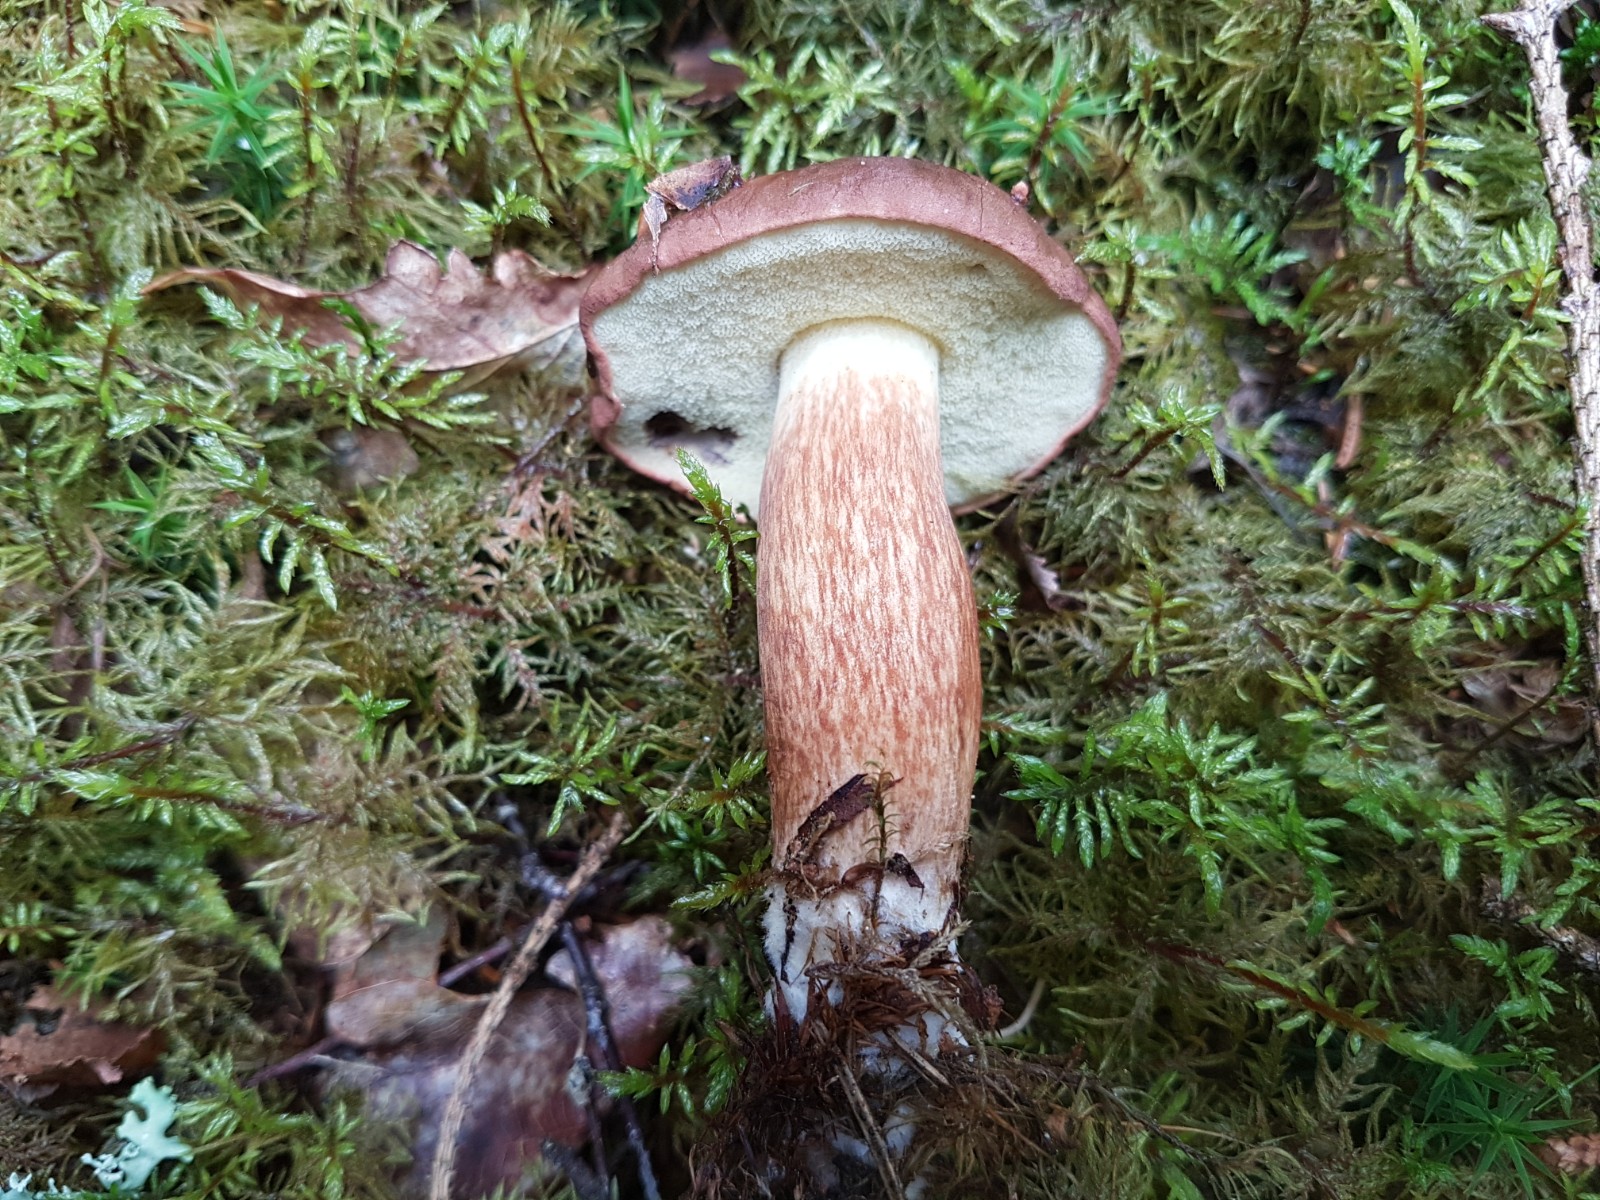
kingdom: Fungi
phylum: Basidiomycota
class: Agaricomycetes
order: Boletales
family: Boletaceae
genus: Imleria
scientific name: Imleria badia
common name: brunstokket rørhat
